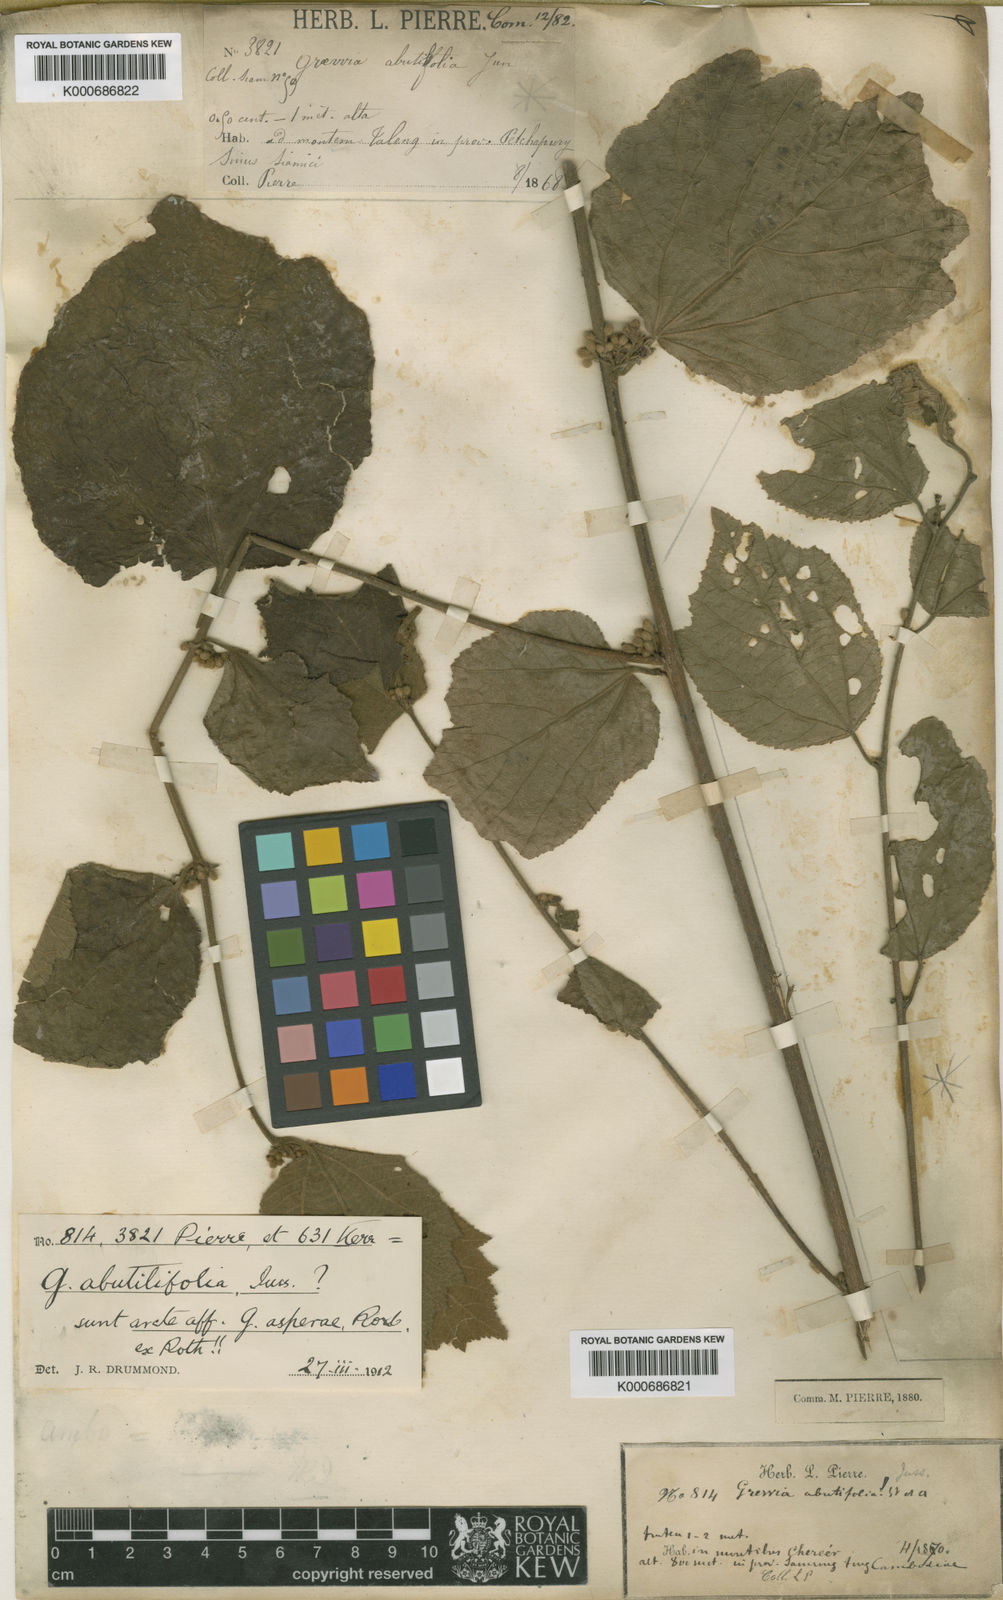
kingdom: Plantae
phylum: Tracheophyta
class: Magnoliopsida
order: Malvales
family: Malvaceae
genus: Grewia
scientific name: Grewia abutilifolia
